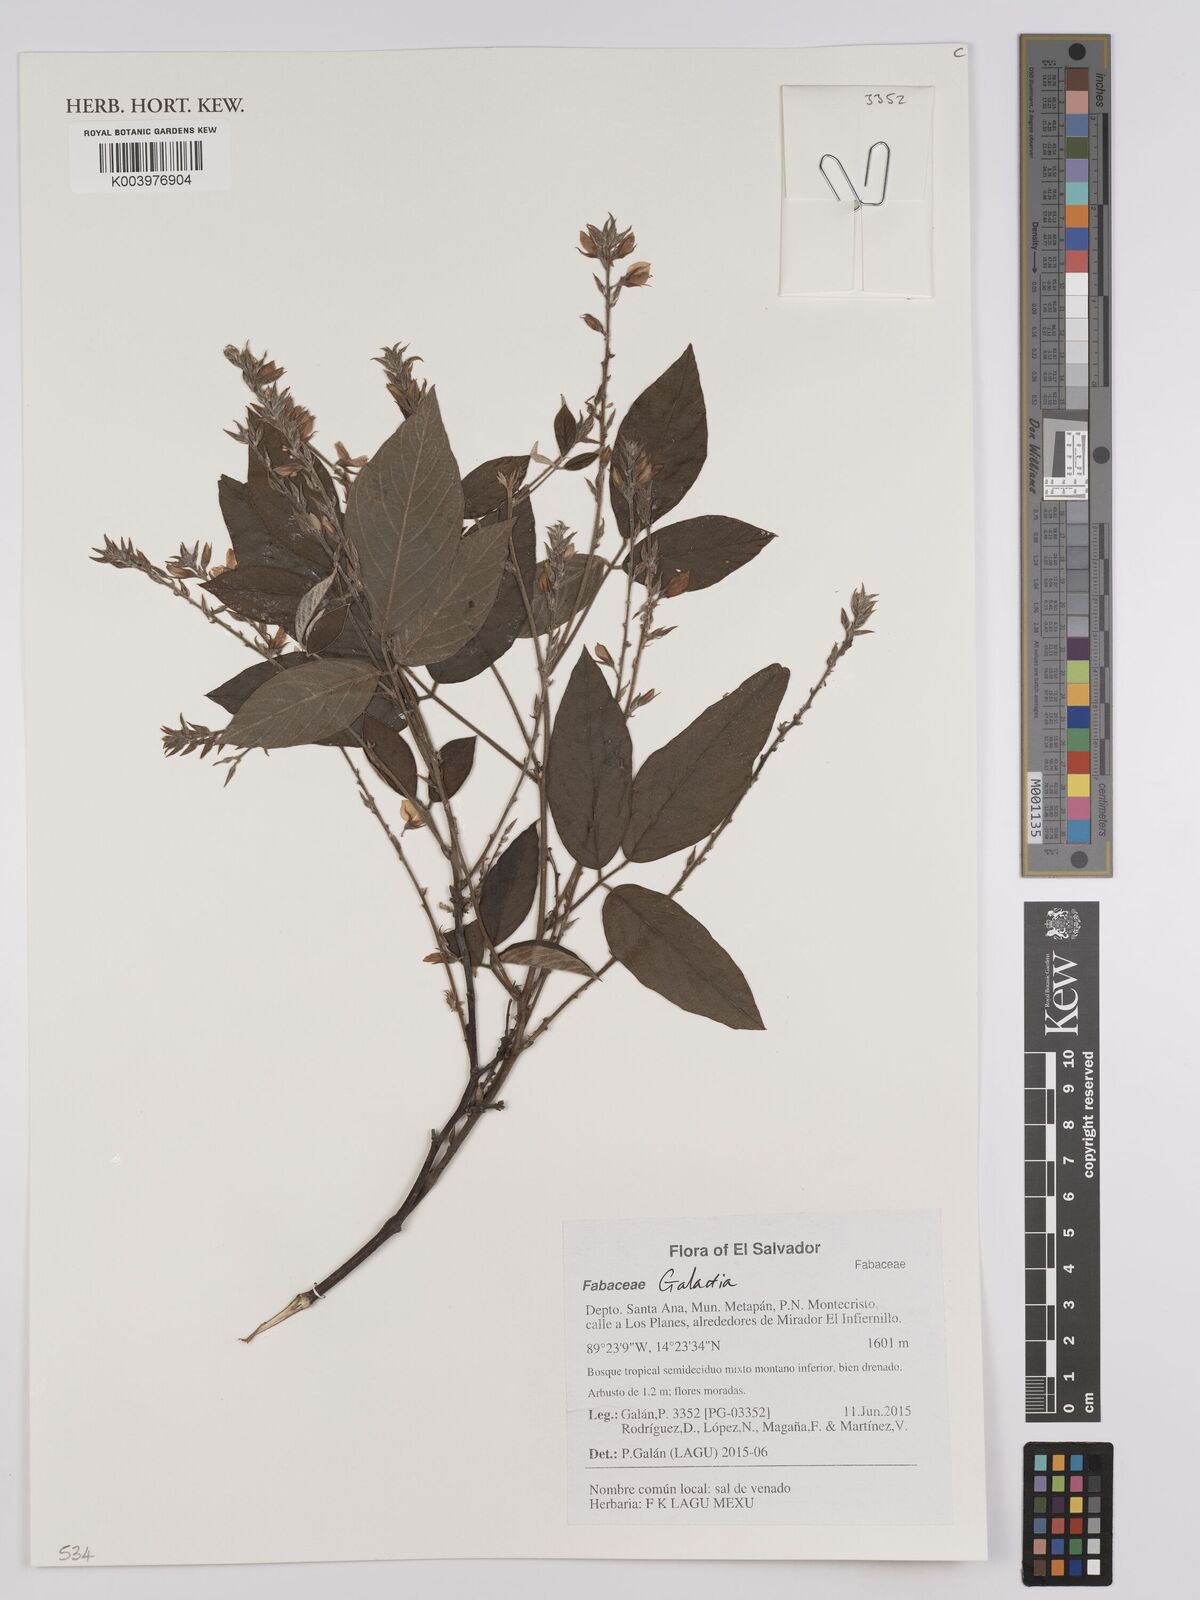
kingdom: Plantae
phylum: Tracheophyta
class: Magnoliopsida
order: Fabales
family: Fabaceae
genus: Galactia
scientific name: Galactia
